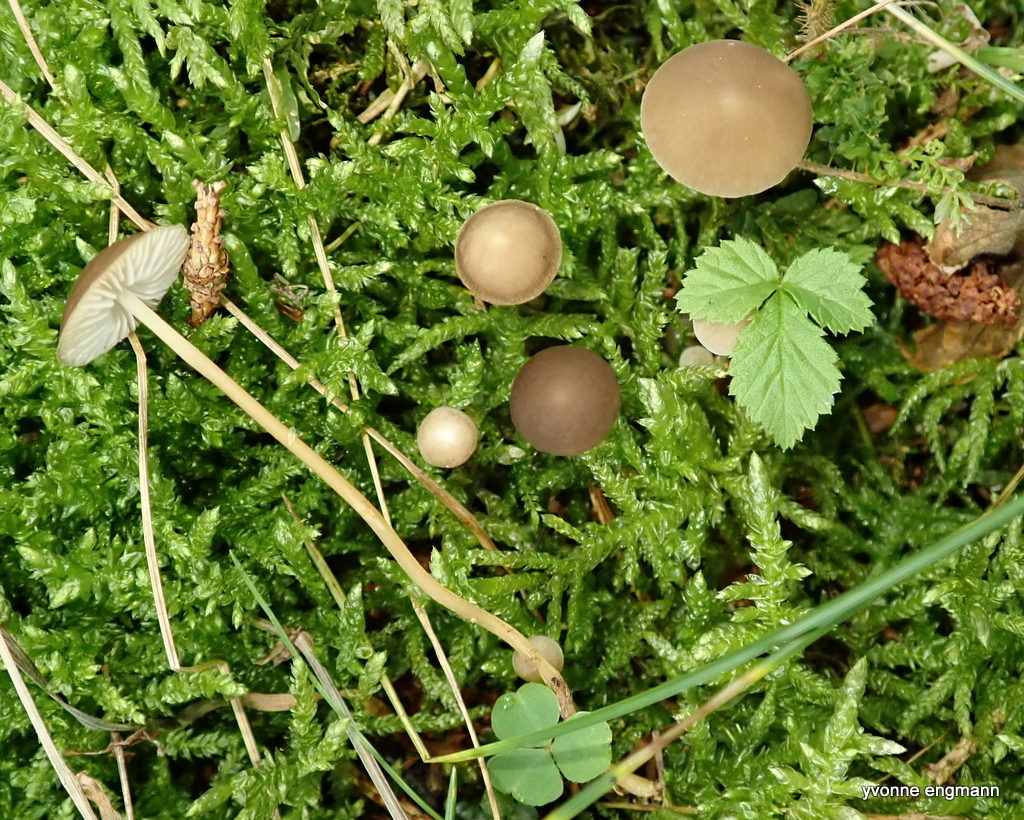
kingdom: Fungi
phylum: Basidiomycota
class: Agaricomycetes
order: Agaricales
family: Physalacriaceae
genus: Strobilurus
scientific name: Strobilurus esculentus
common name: gran-koglehat
